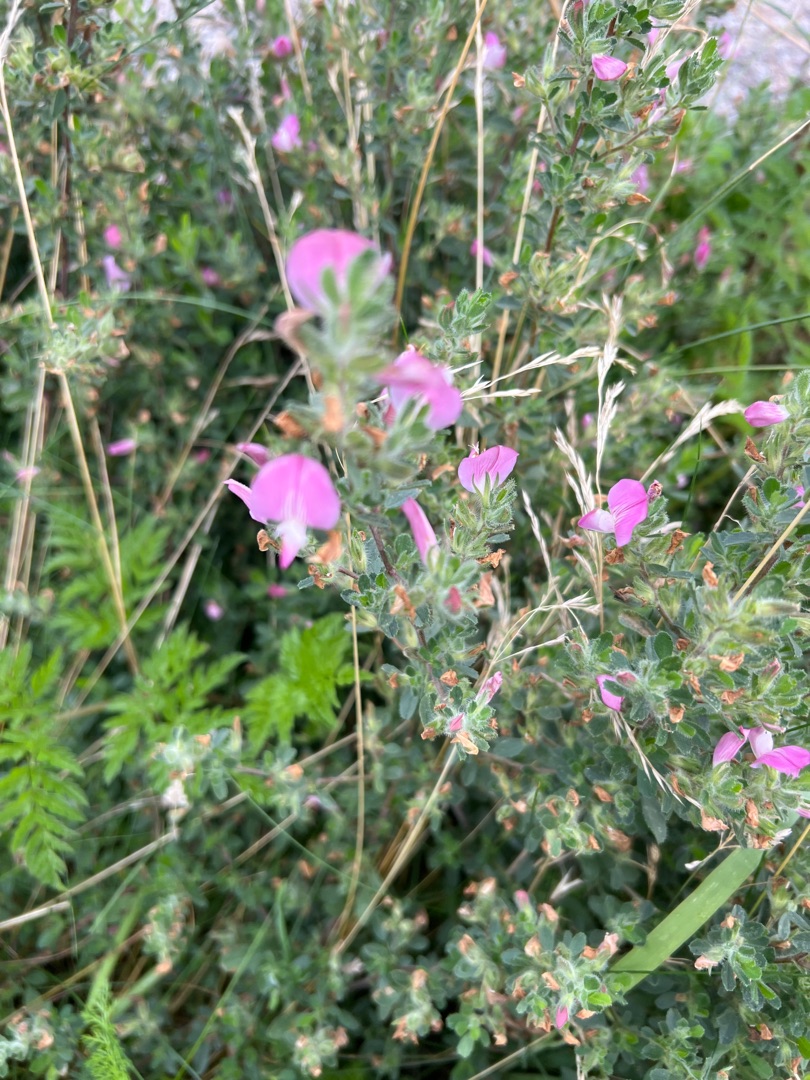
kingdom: Plantae
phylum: Tracheophyta
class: Magnoliopsida
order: Fabales
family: Fabaceae
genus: Ononis
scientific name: Ononis spinosa
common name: Mark-krageklo
